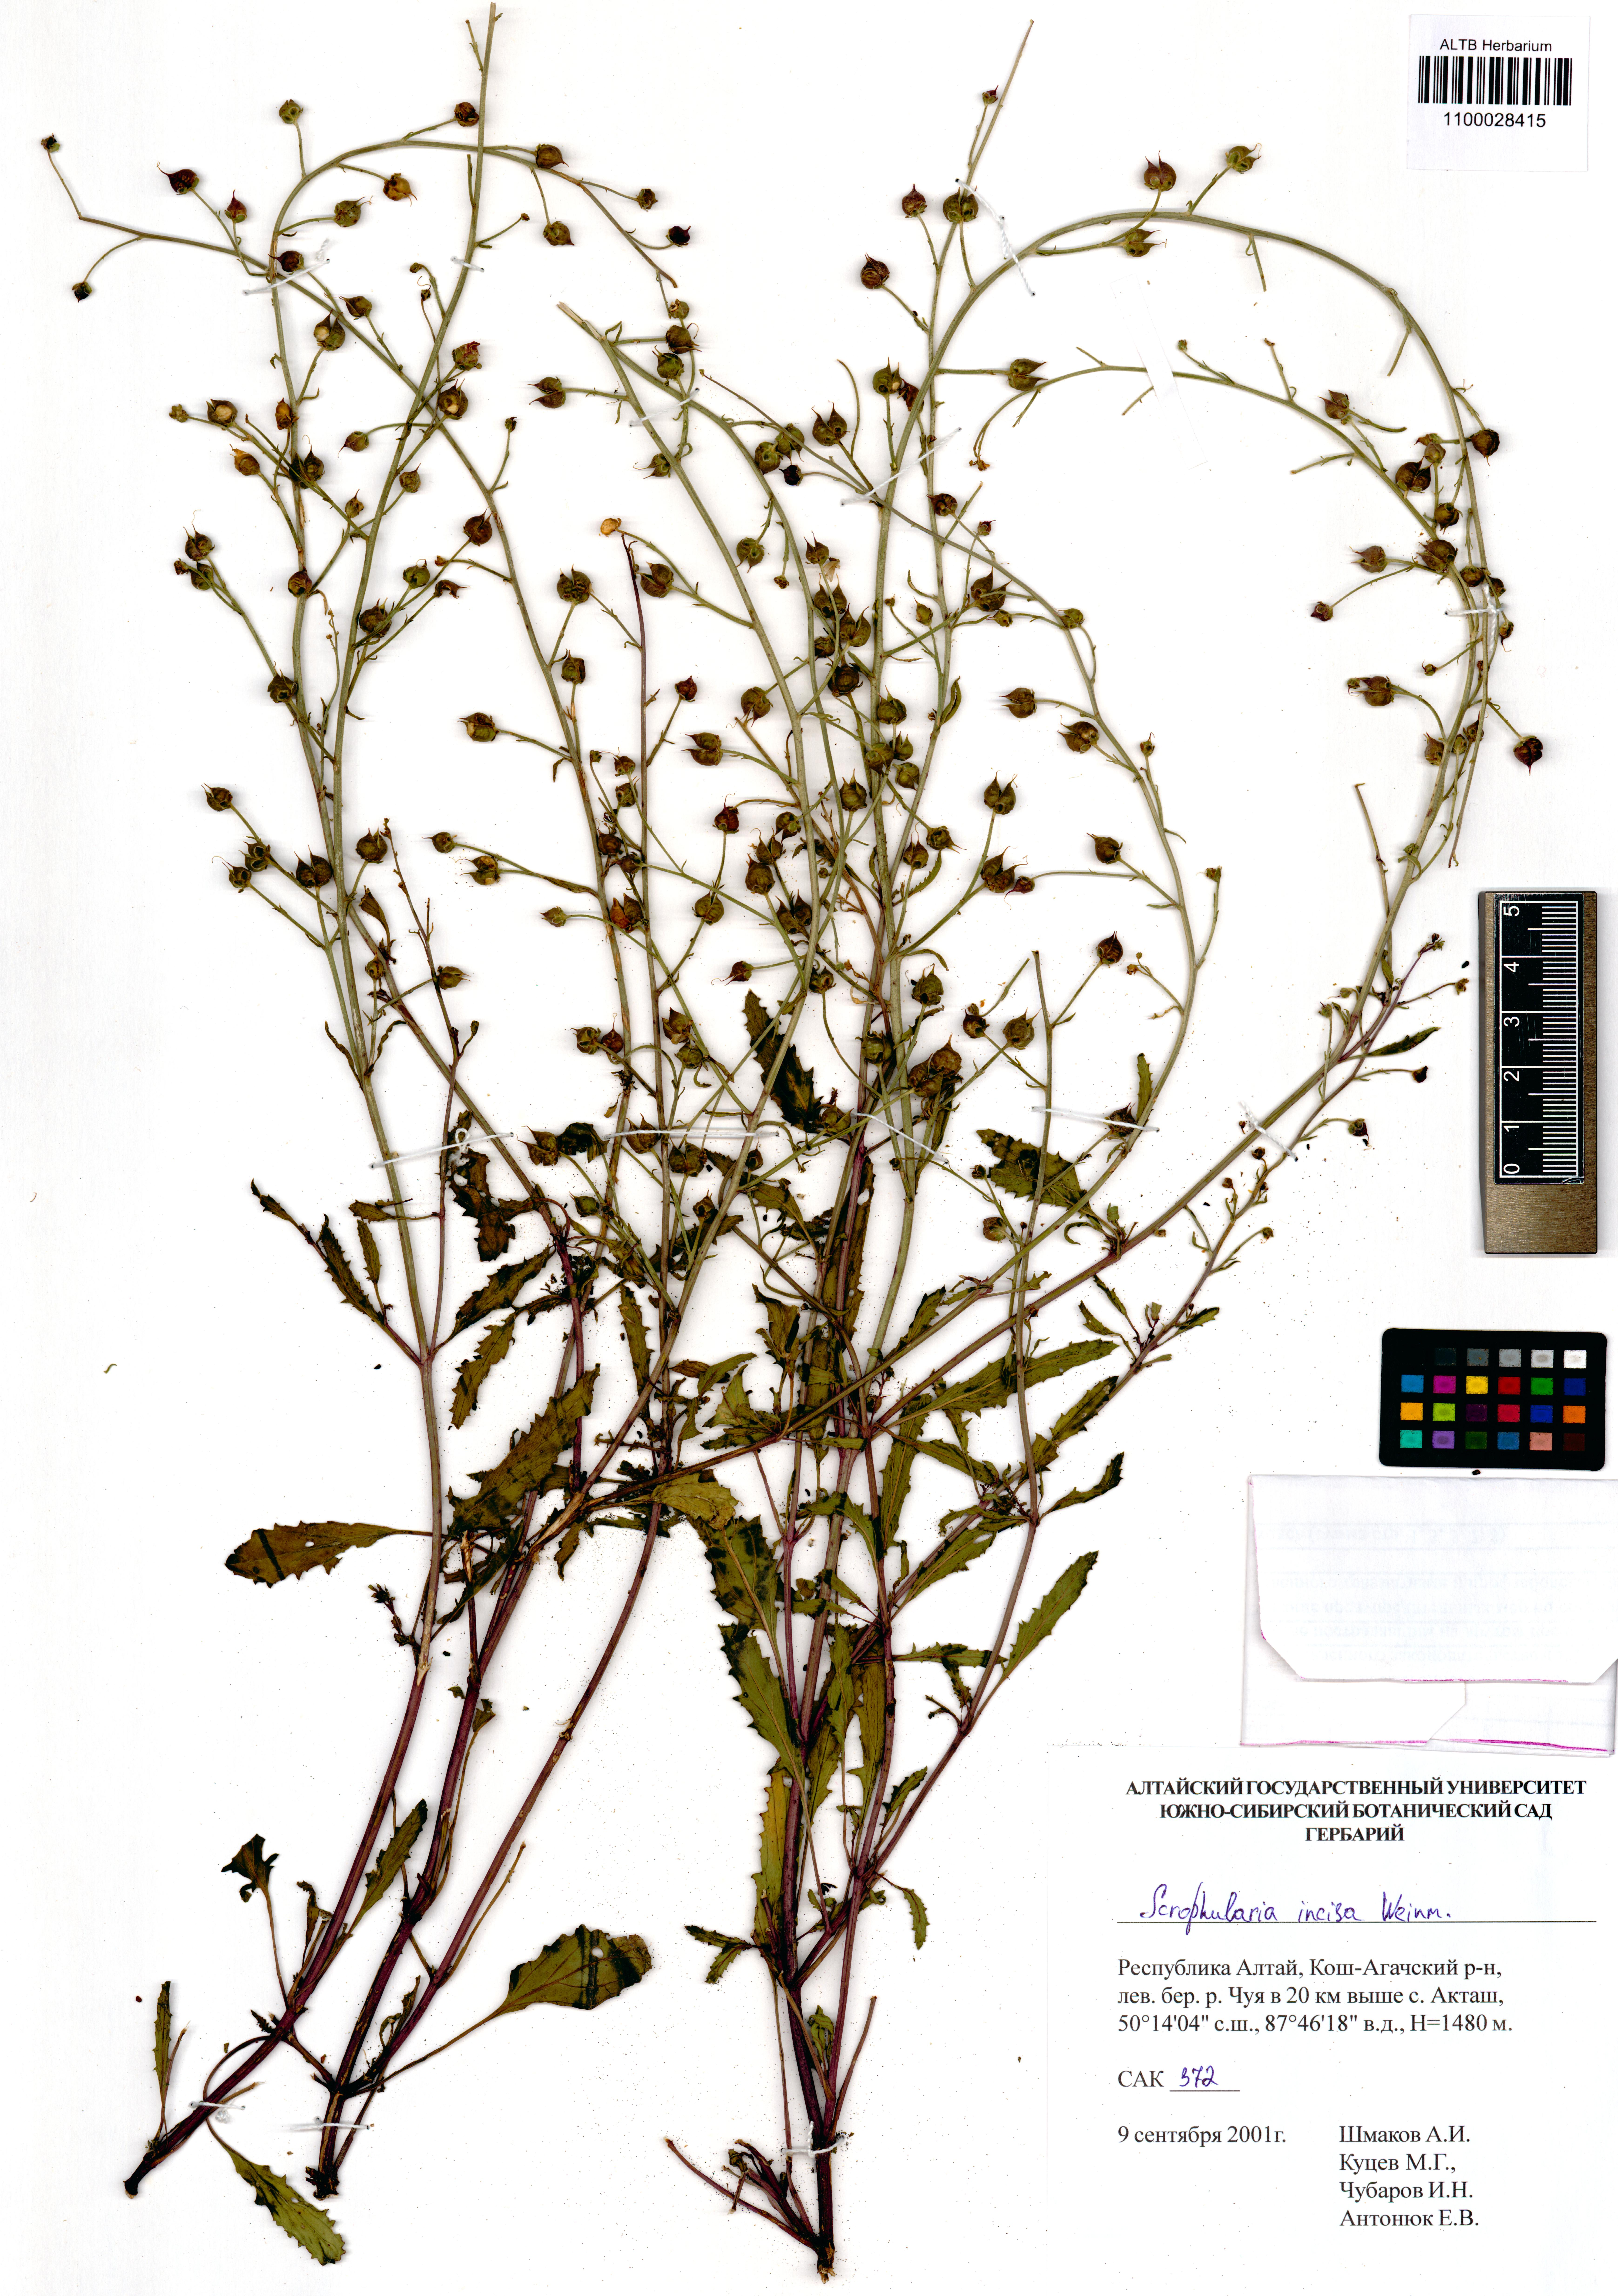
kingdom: Plantae
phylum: Tracheophyta
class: Magnoliopsida
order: Lamiales
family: Scrophulariaceae
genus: Scrophularia
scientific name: Scrophularia incisa
